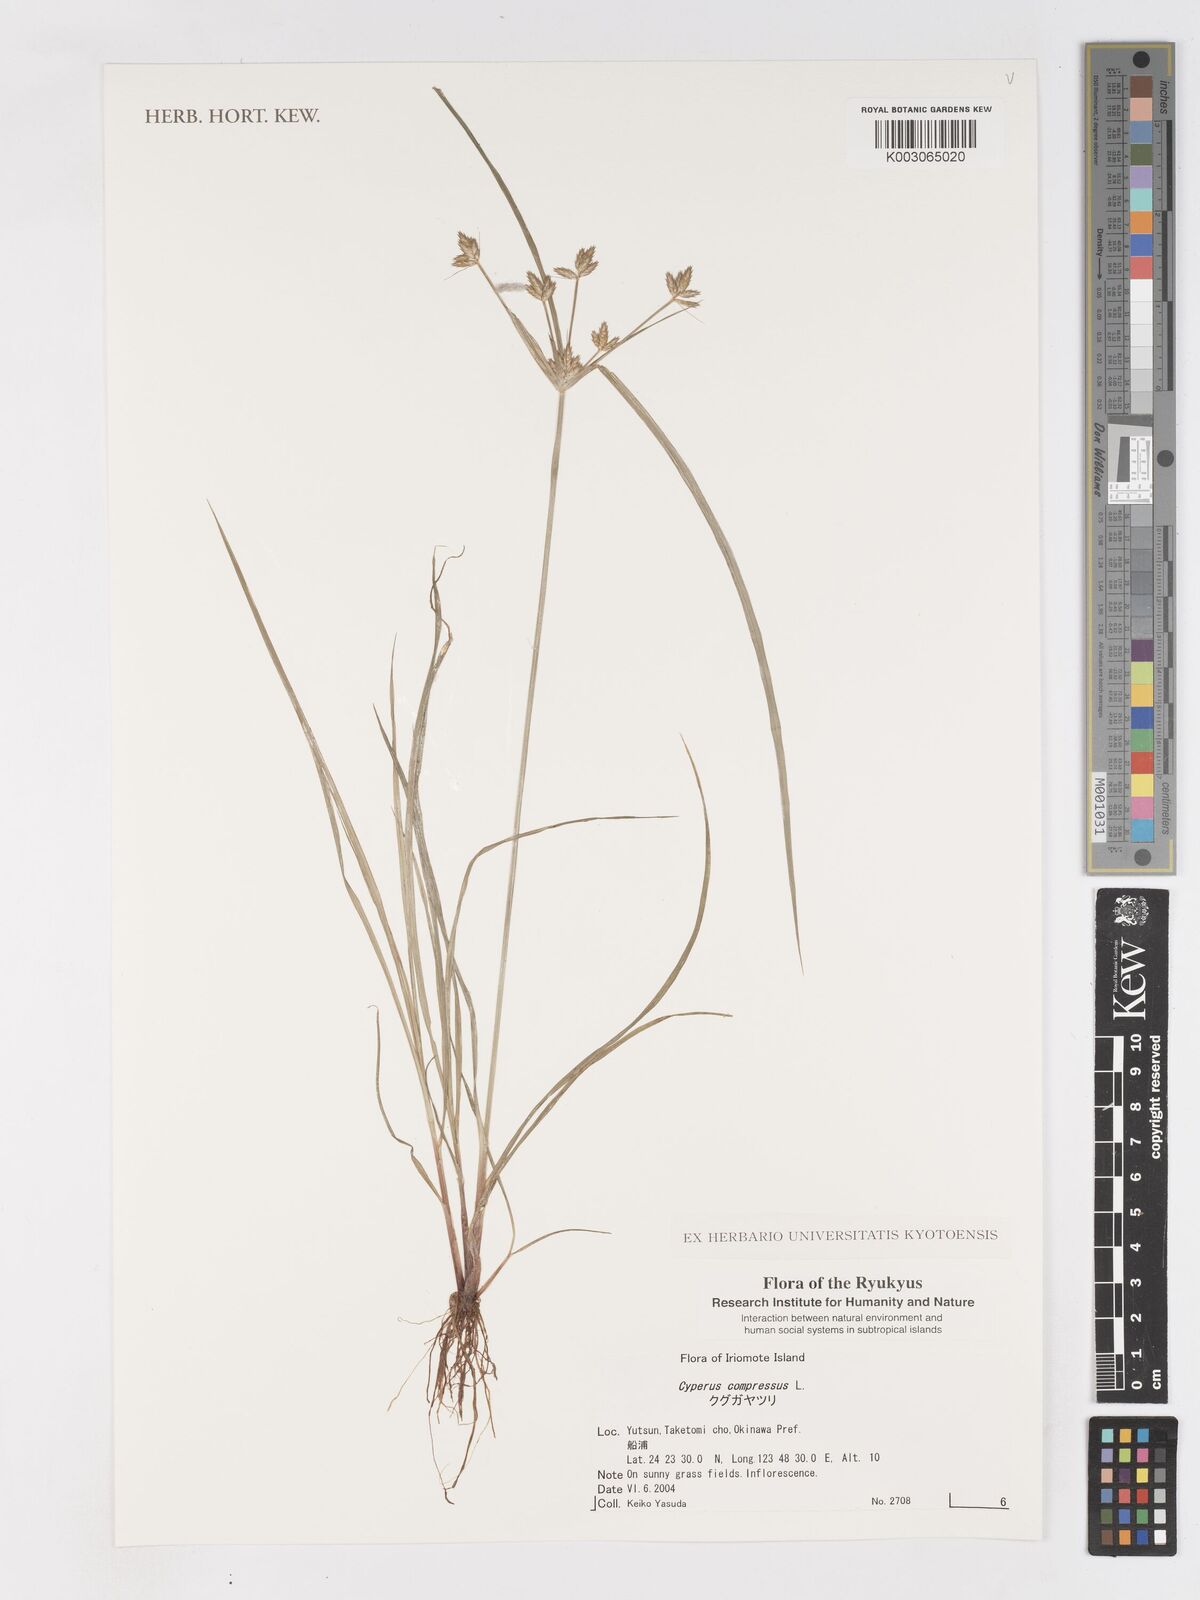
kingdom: Plantae
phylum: Tracheophyta
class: Liliopsida
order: Poales
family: Cyperaceae
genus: Cyperus
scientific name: Cyperus compressus
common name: Poorland flatsedge
